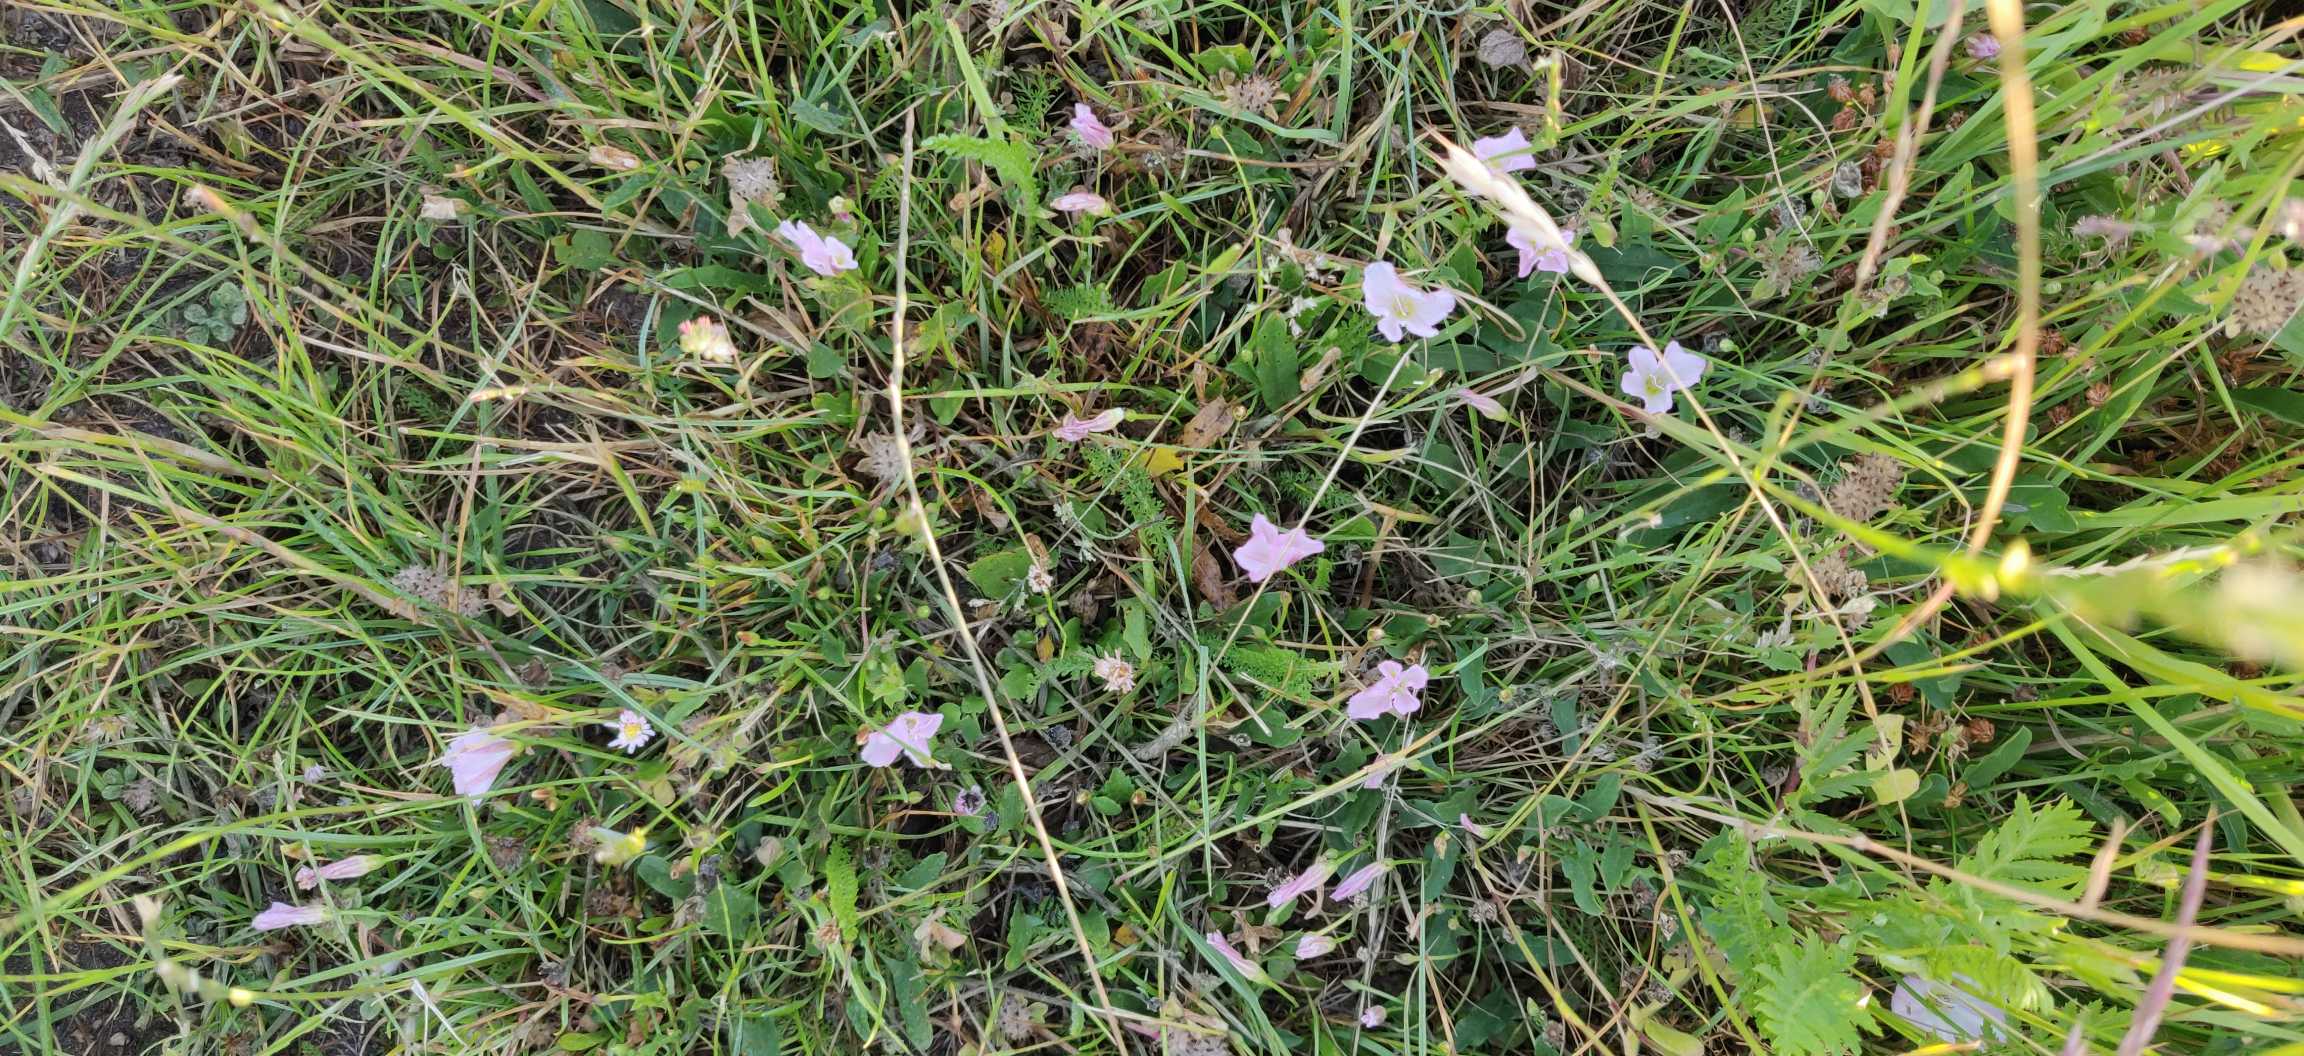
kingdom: Plantae
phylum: Tracheophyta
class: Magnoliopsida
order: Solanales
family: Convolvulaceae
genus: Convolvulus
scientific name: Convolvulus arvensis
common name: Ager-snerle
